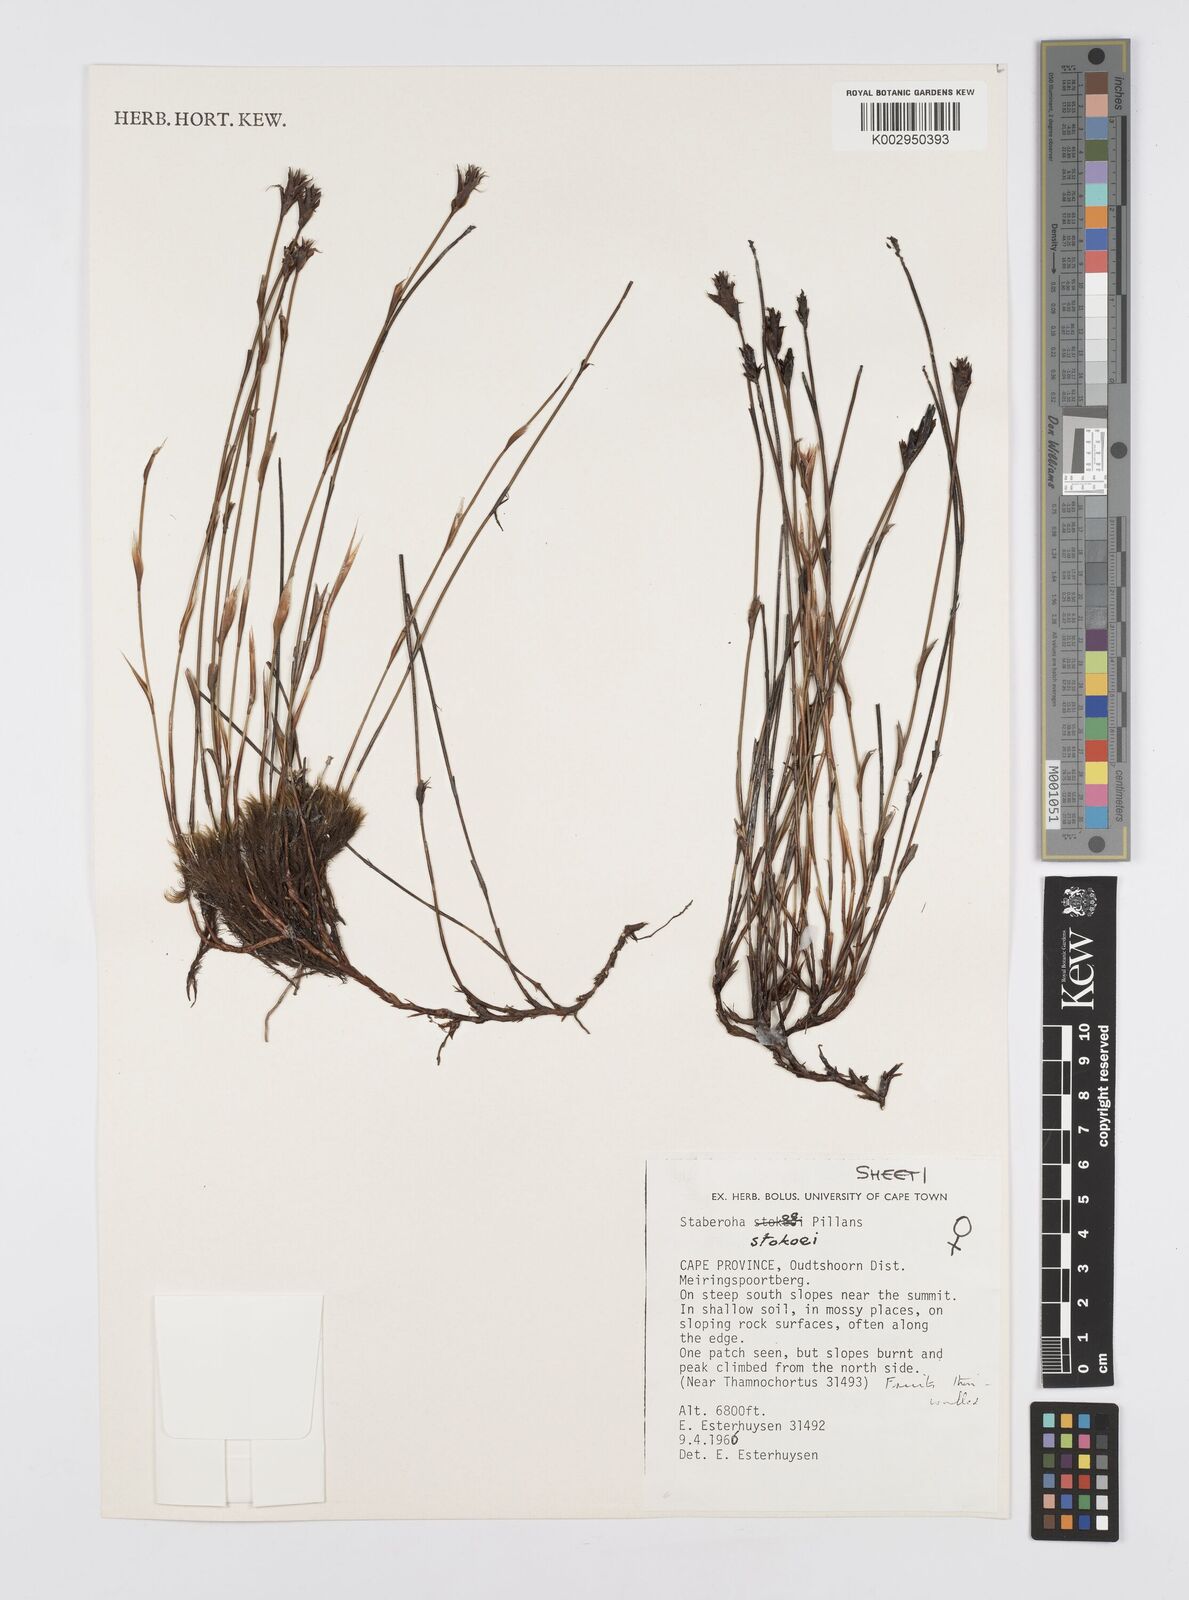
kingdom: Plantae
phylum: Tracheophyta
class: Liliopsida
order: Poales
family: Restionaceae
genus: Staberoha
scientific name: Staberoha stokoei
